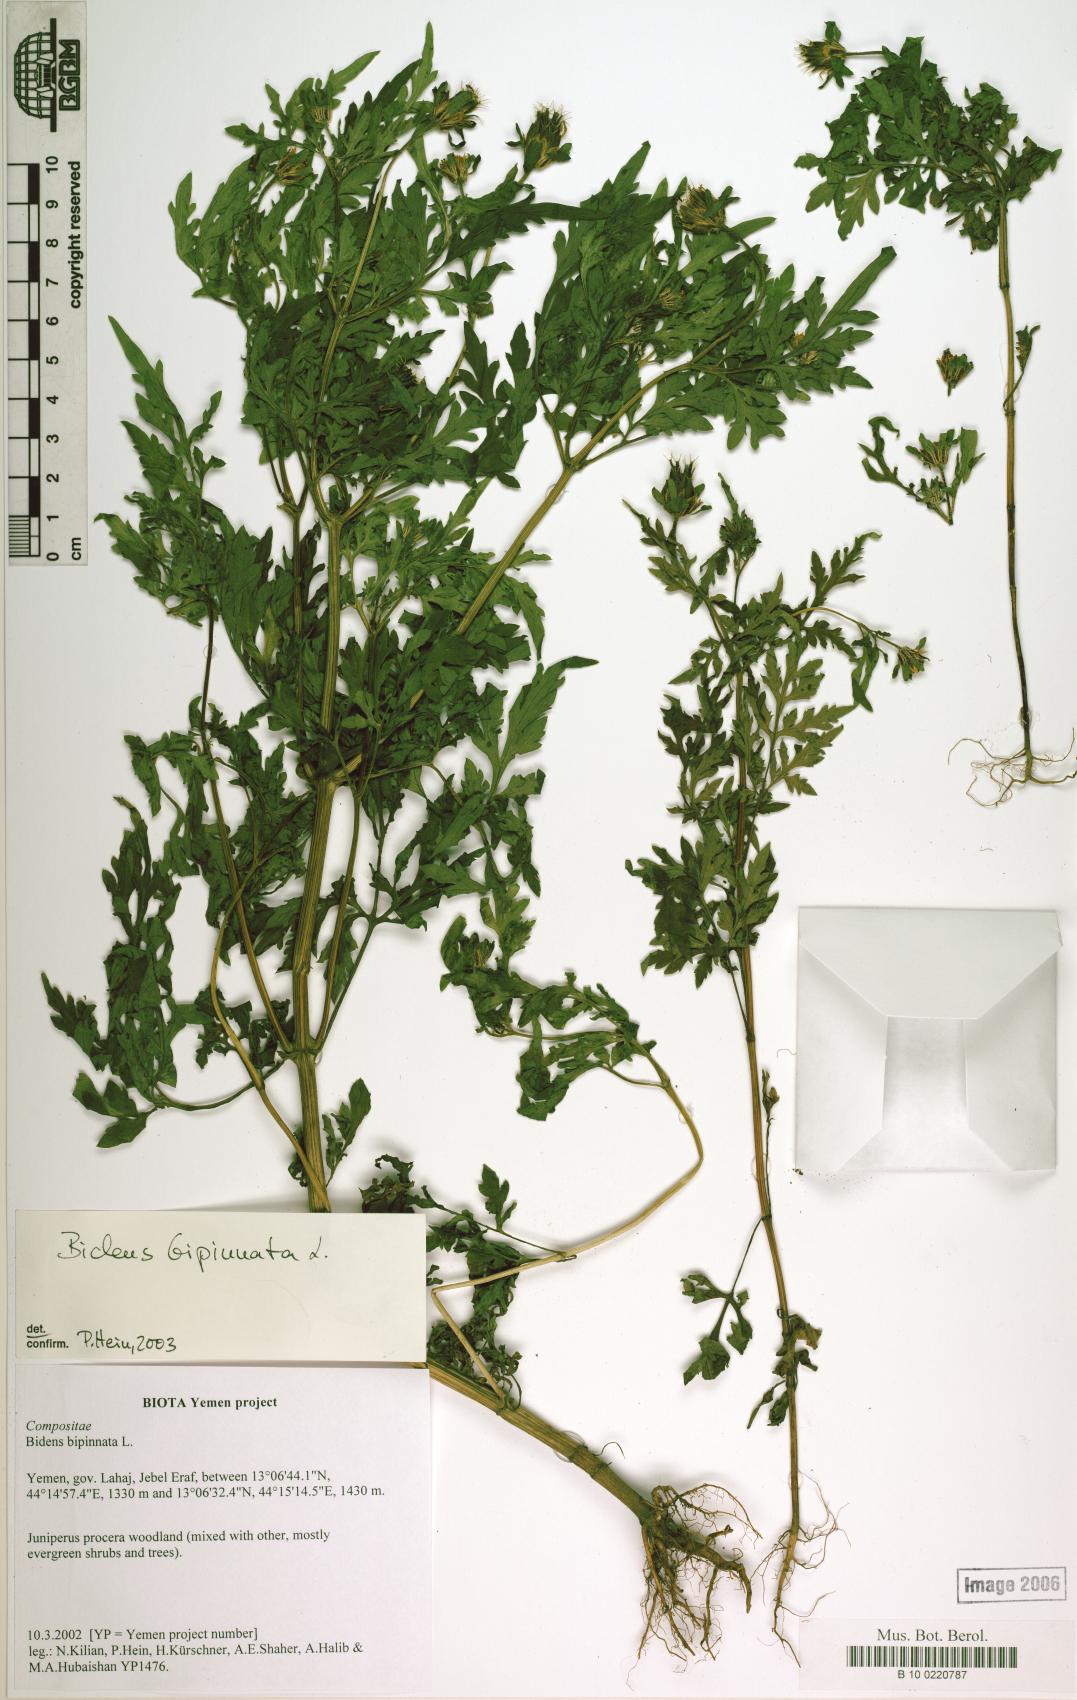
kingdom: Plantae
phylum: Tracheophyta
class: Magnoliopsida
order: Asterales
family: Asteraceae
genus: Bidens
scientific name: Bidens bipinnata
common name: Spanish-needles
